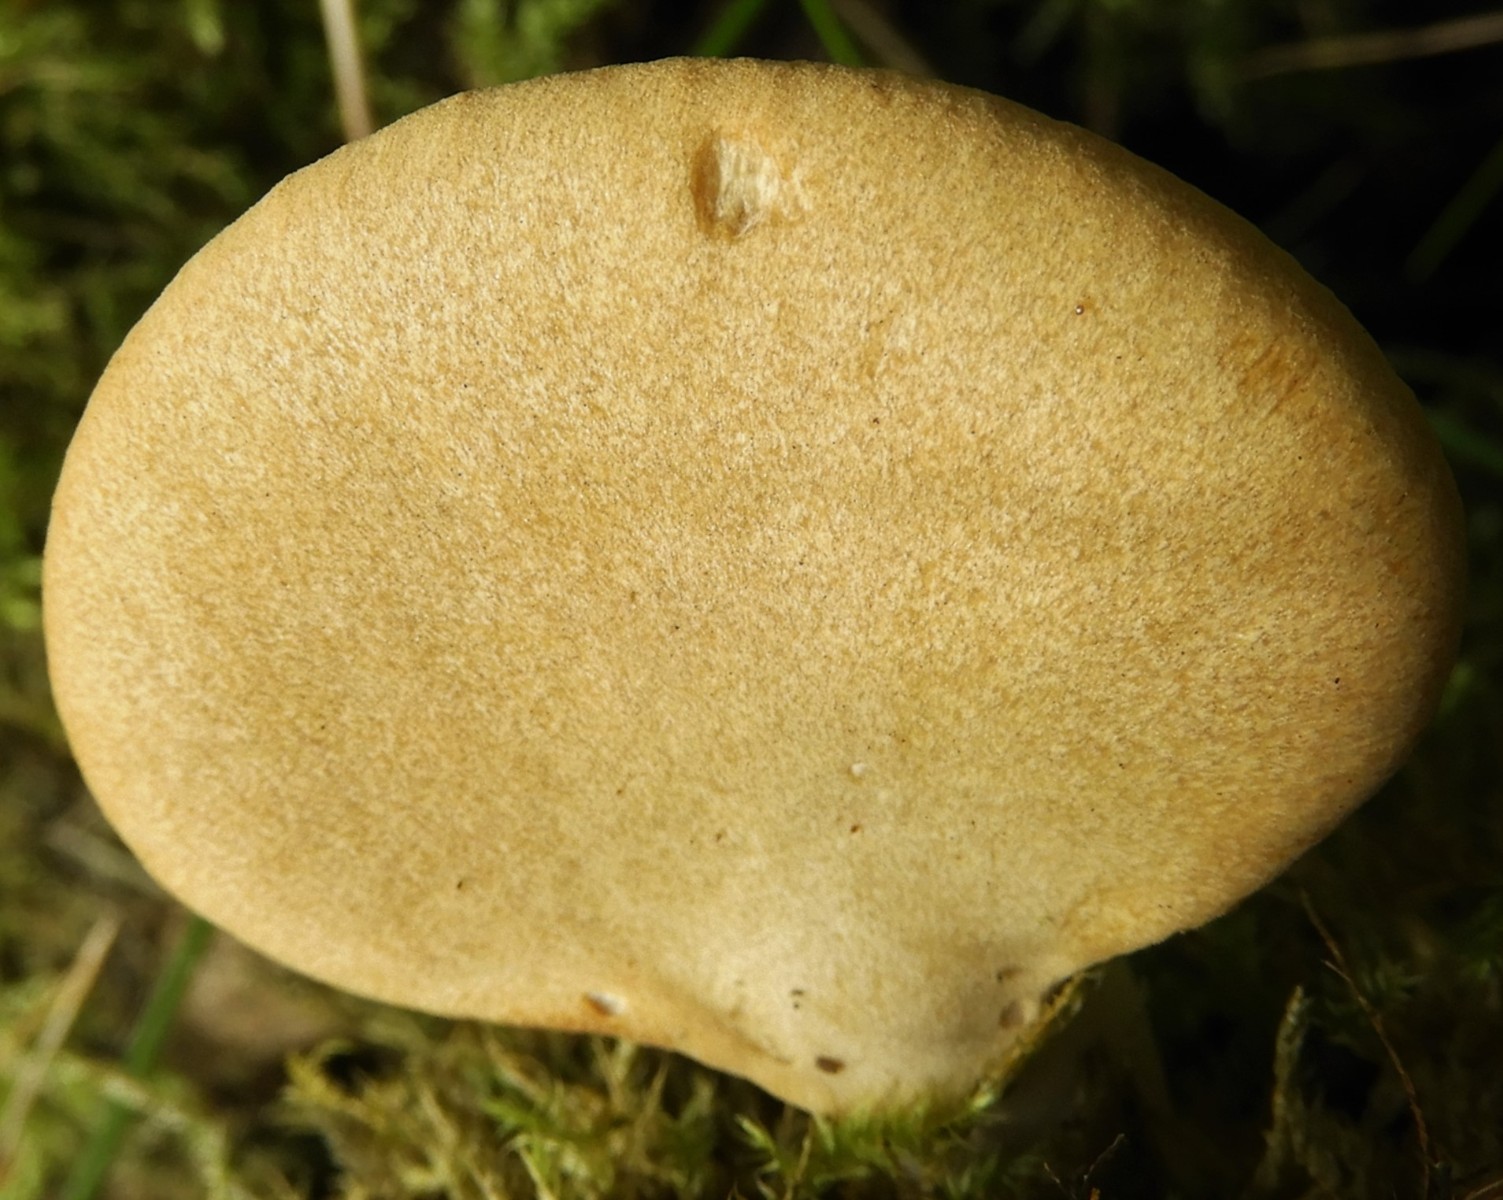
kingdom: Fungi
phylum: Basidiomycota
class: Agaricomycetes
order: Polyporales
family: Polyporaceae
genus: Cerioporus
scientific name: Cerioporus varius
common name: foranderlig stilkporesvamp
